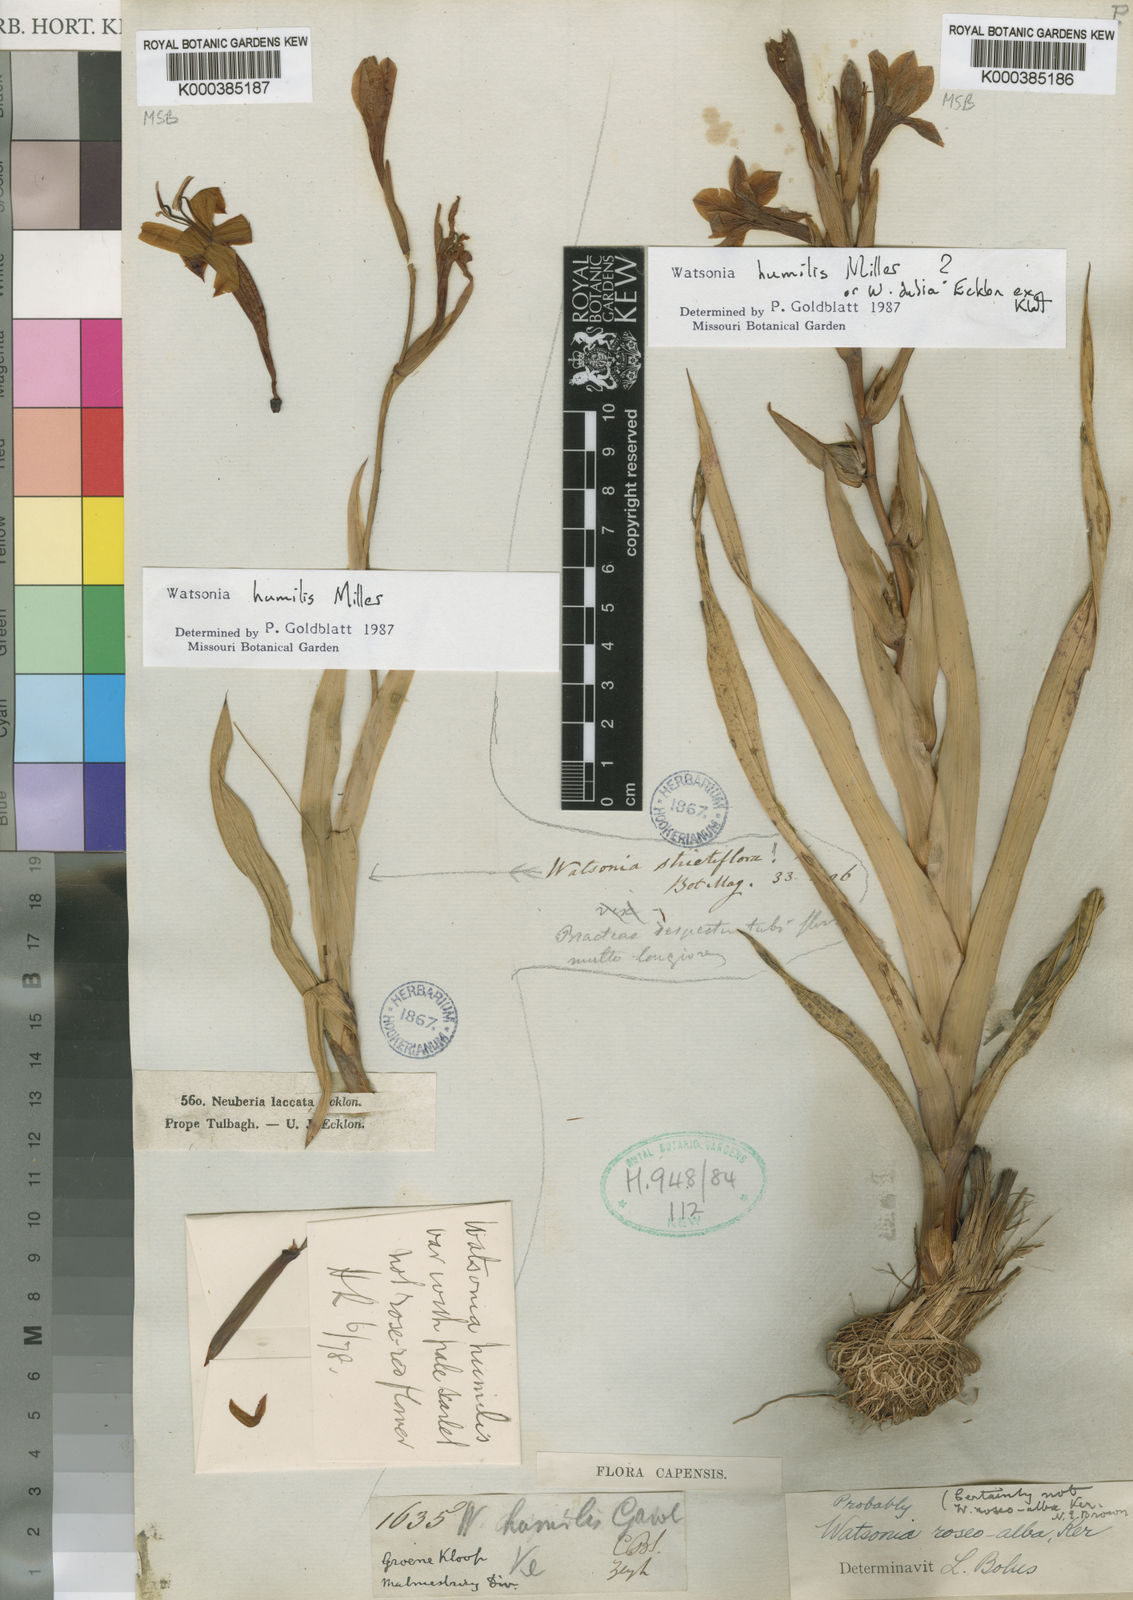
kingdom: Plantae
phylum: Tracheophyta
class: Liliopsida
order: Asparagales
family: Iridaceae
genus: Watsonia
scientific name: Watsonia humilis
